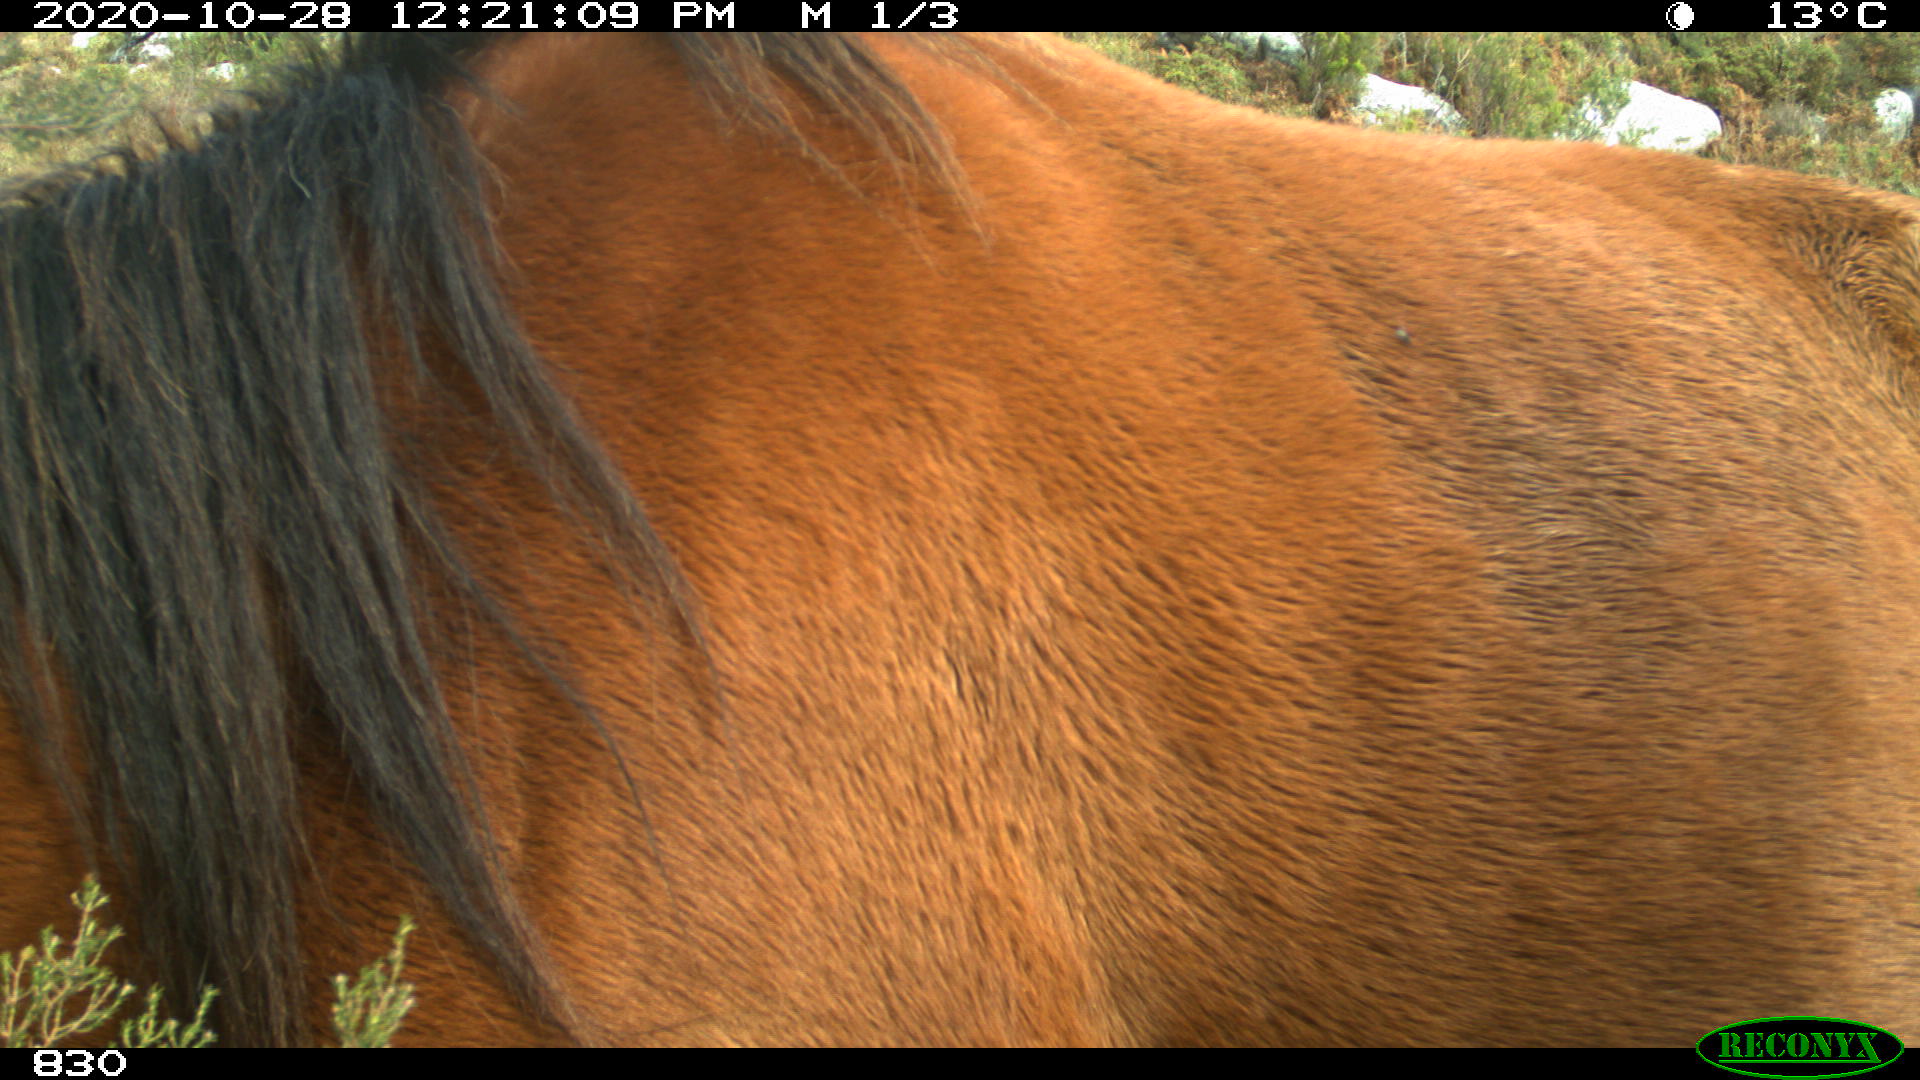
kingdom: Animalia
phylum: Chordata
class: Mammalia
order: Perissodactyla
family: Equidae
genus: Equus
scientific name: Equus caballus
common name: Horse
